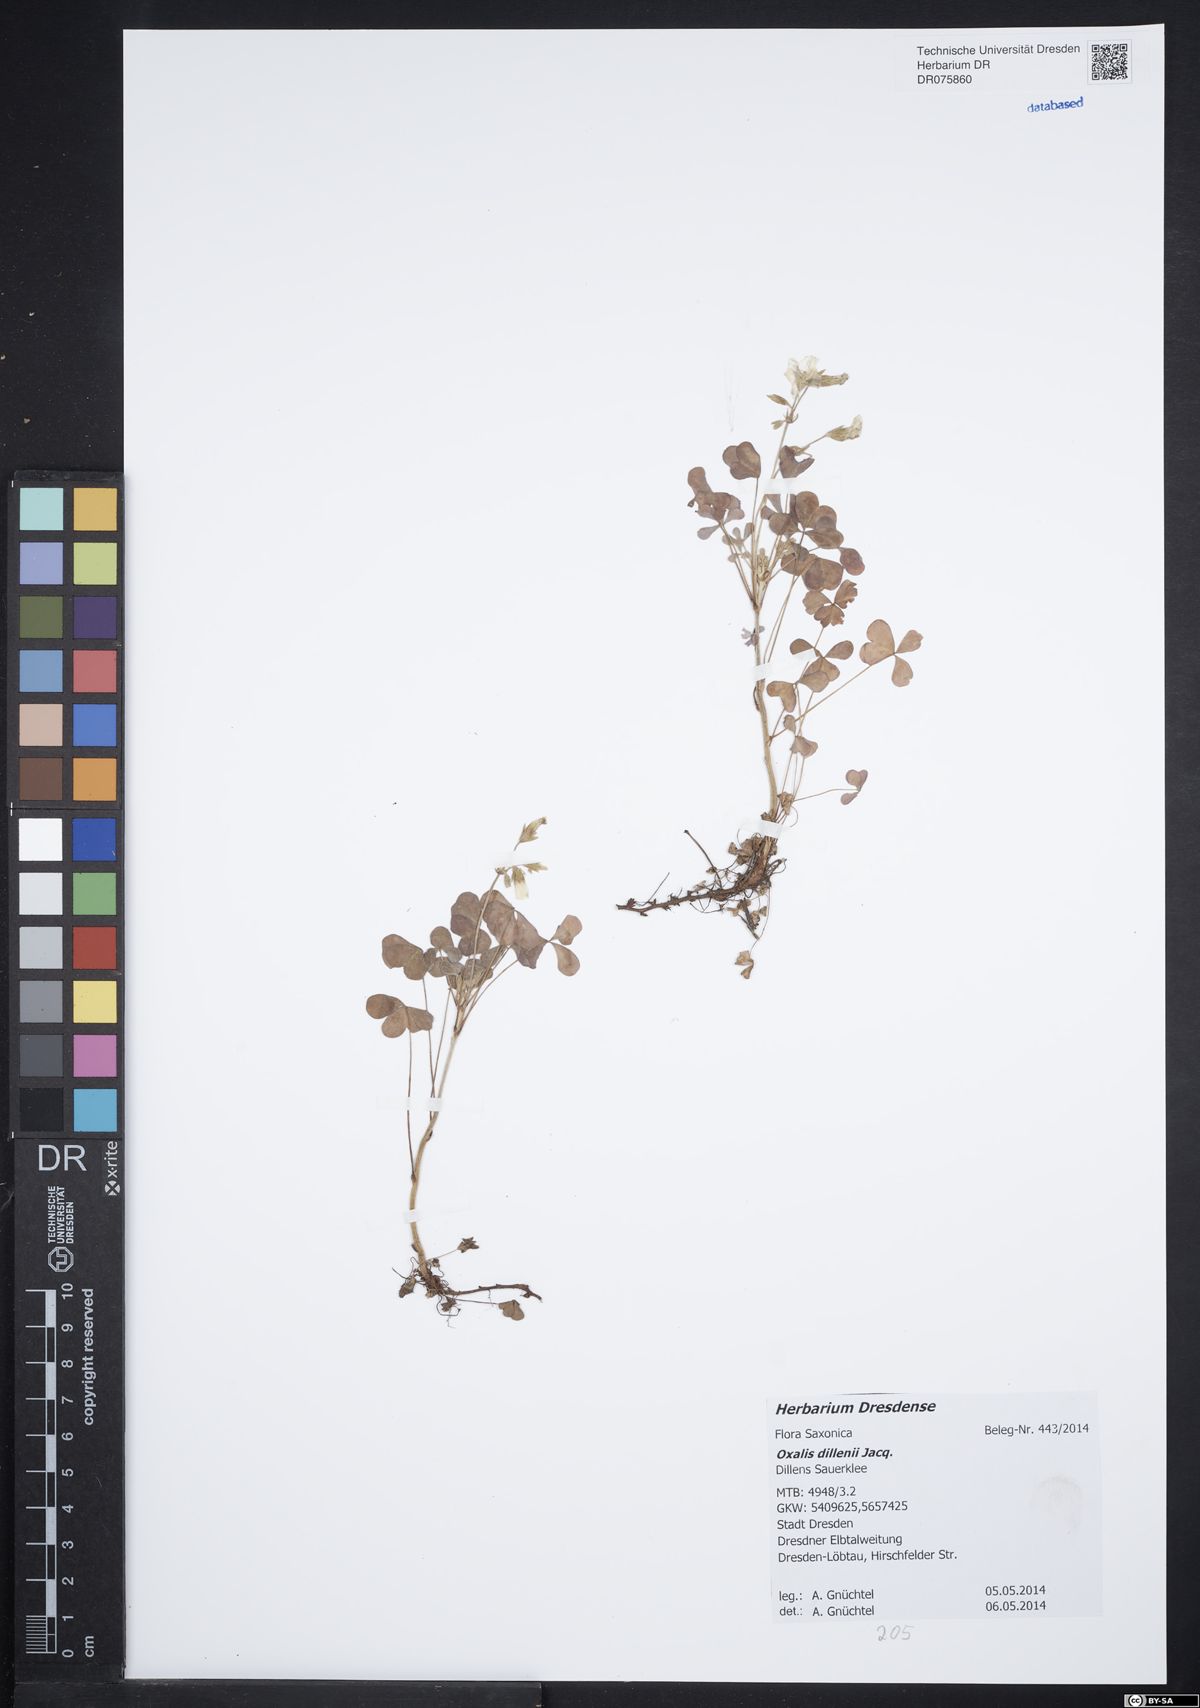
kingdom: Plantae
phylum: Tracheophyta
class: Magnoliopsida
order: Oxalidales
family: Oxalidaceae
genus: Oxalis
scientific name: Oxalis dillenii
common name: Sussex yellow-sorrel
